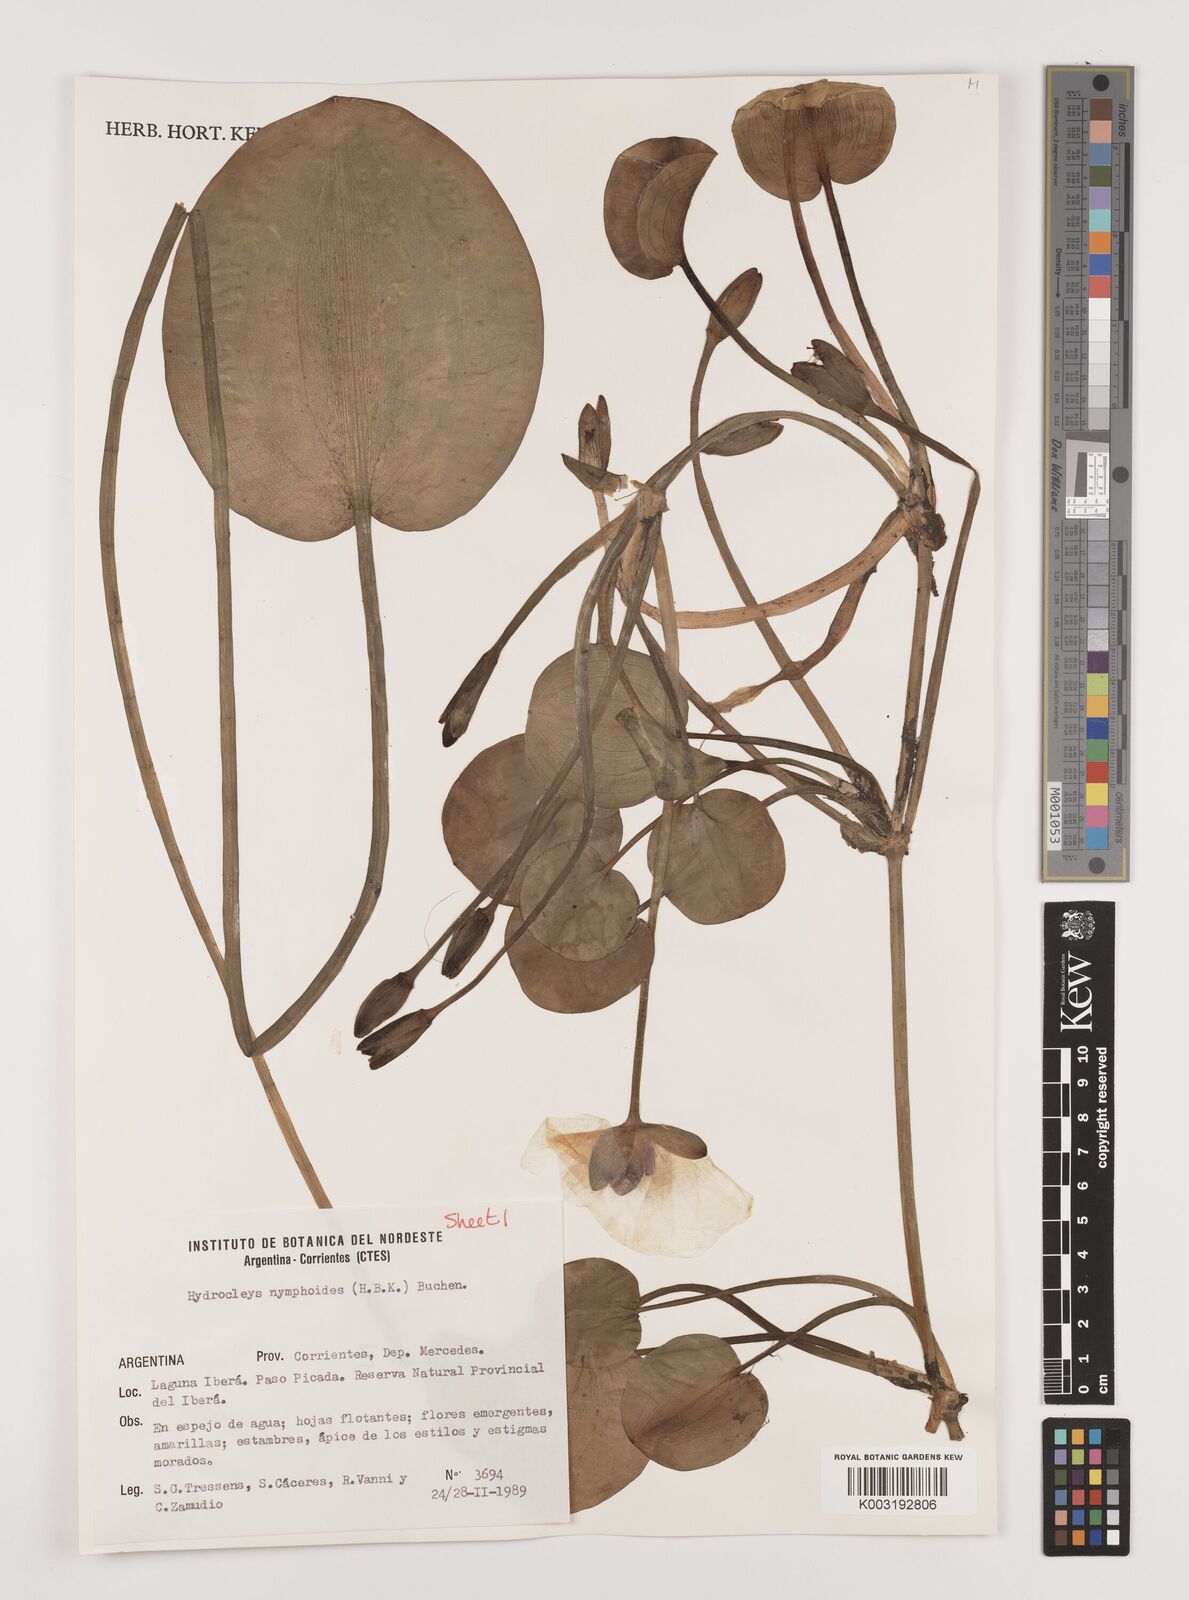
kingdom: Plantae
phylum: Tracheophyta
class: Liliopsida
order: Alismatales
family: Alismataceae
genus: Hydrocleys
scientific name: Hydrocleys nymphoides
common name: Water-poppy
